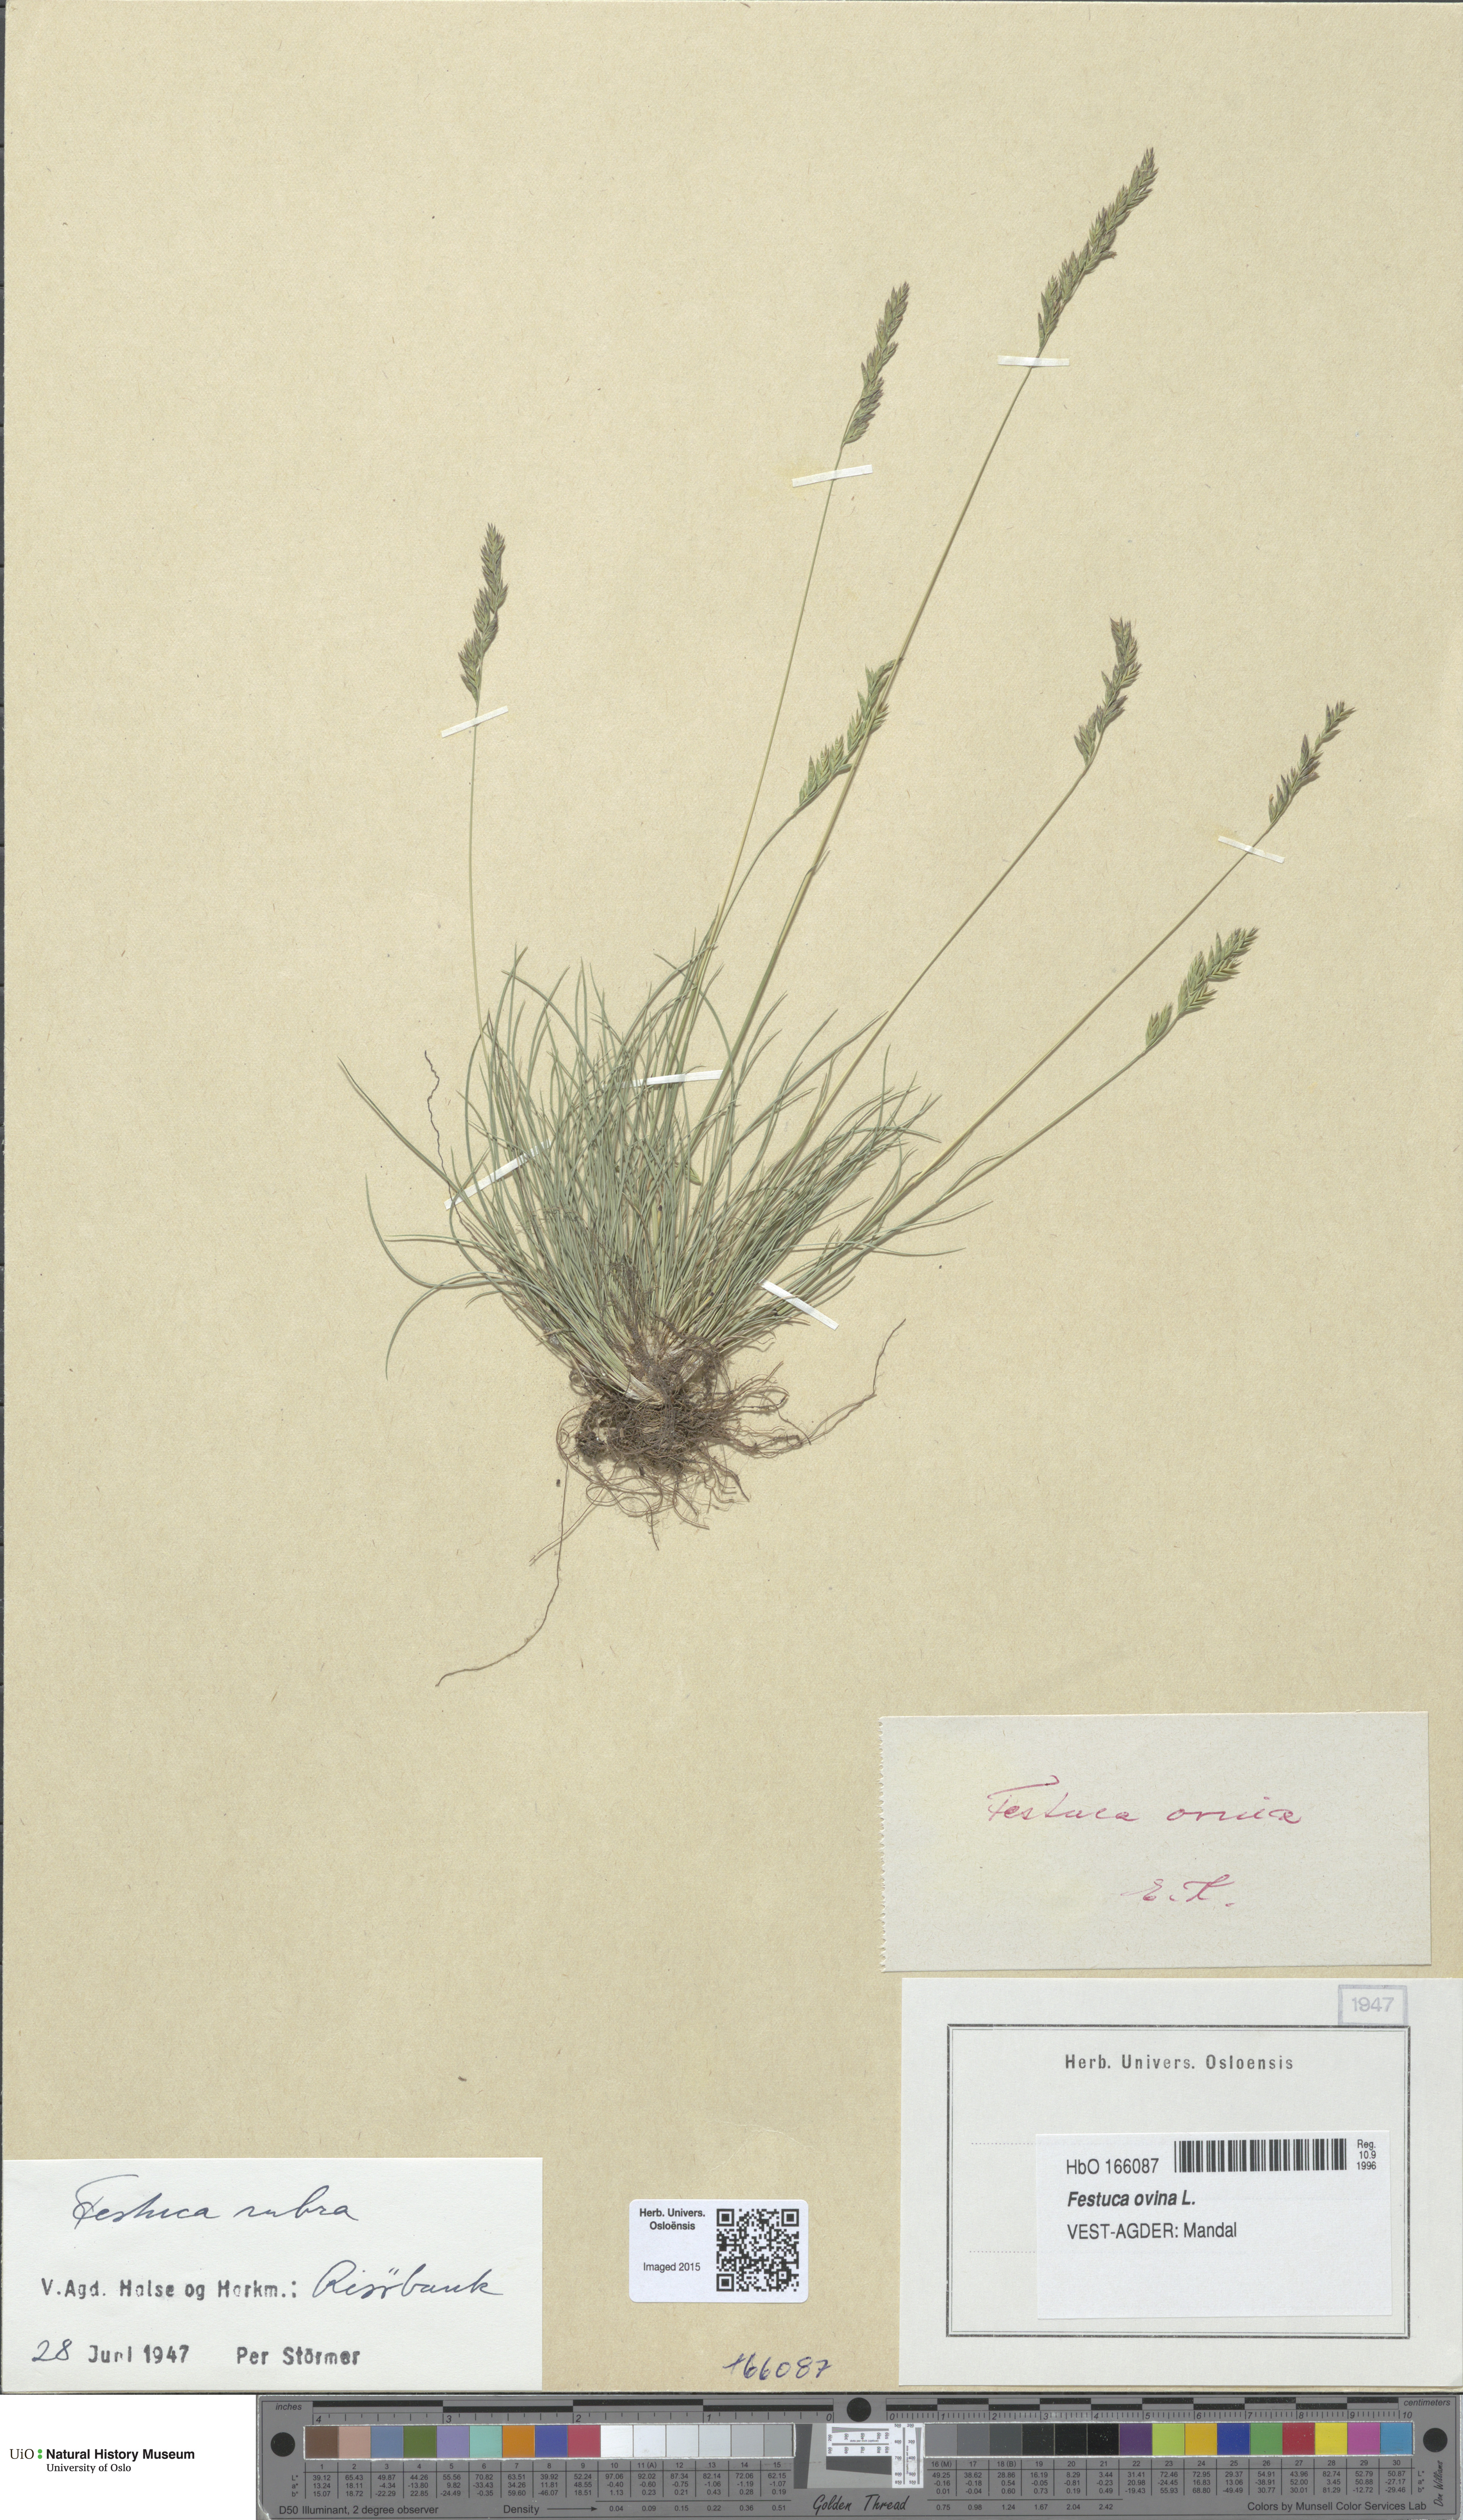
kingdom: Plantae
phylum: Tracheophyta
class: Liliopsida
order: Poales
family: Poaceae
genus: Festuca
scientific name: Festuca ovina
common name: Sheep fescue
